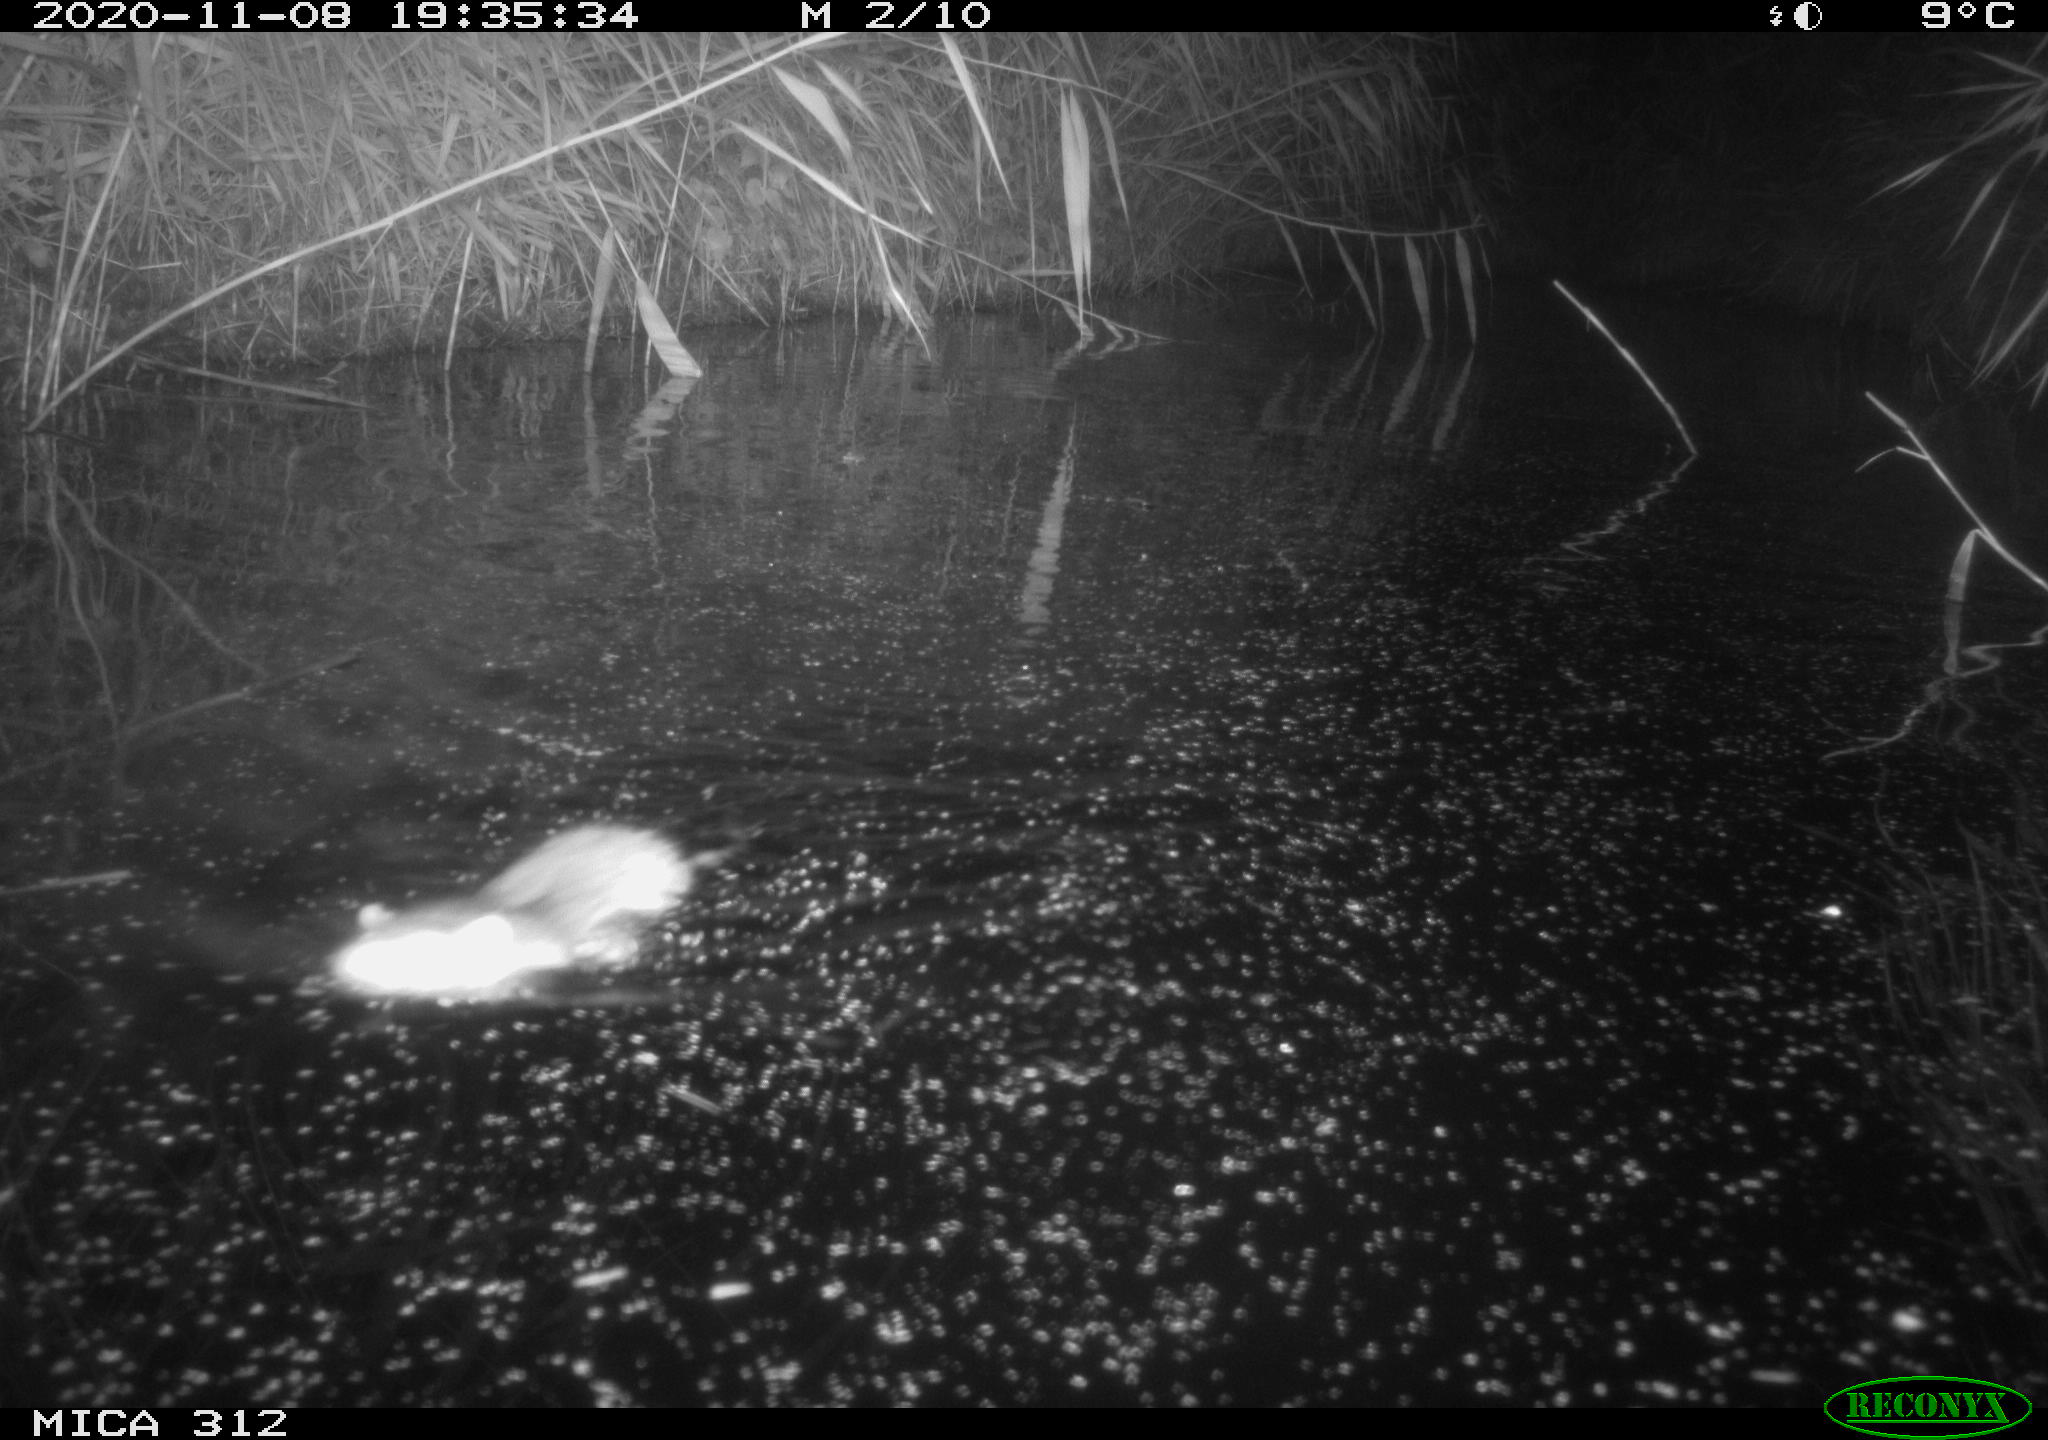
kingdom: Animalia
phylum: Chordata
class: Mammalia
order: Rodentia
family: Muridae
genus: Rattus
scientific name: Rattus norvegicus
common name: Brown rat
